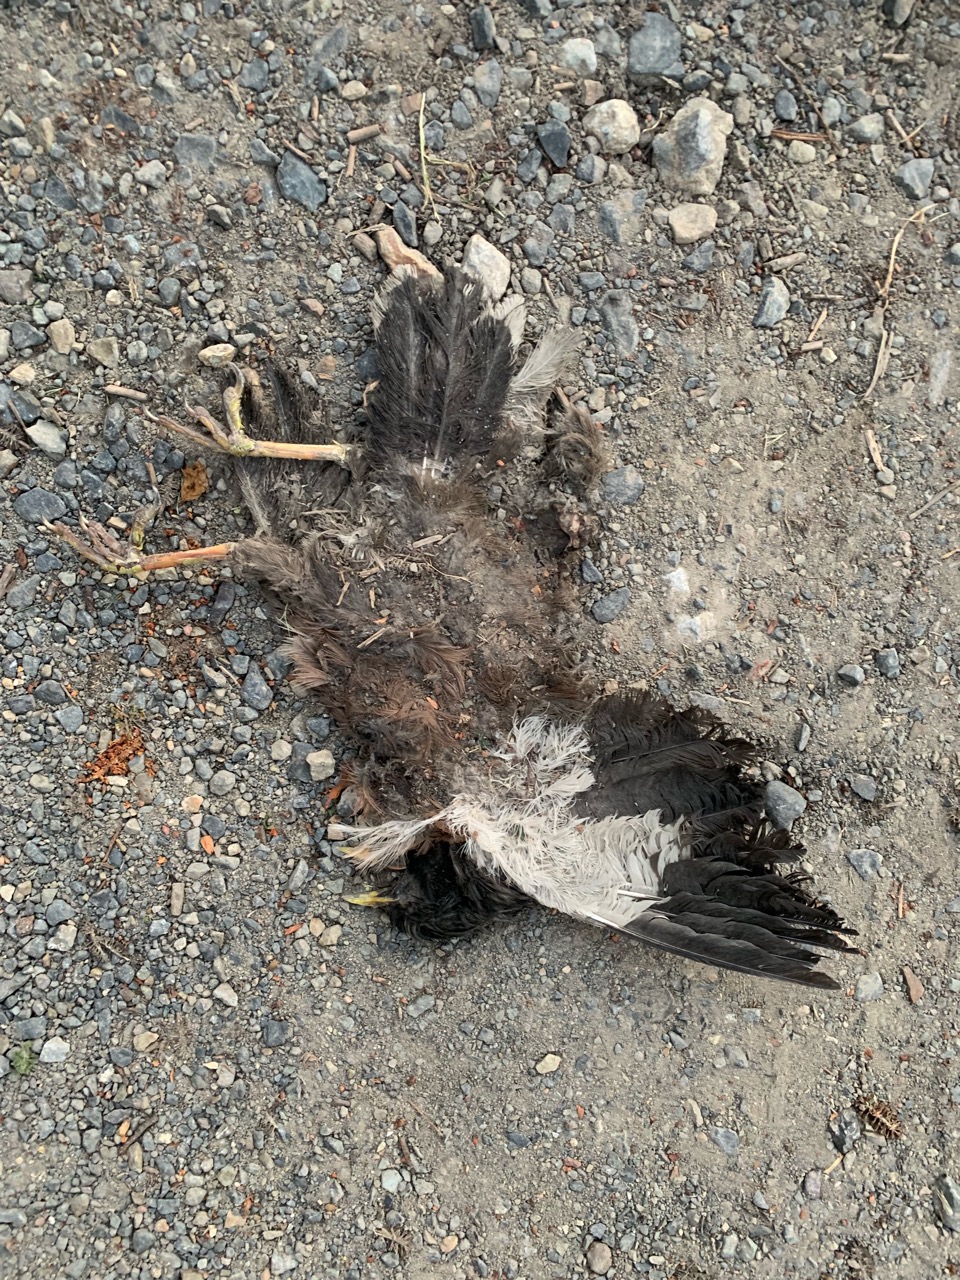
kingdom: Animalia
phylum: Chordata
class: Aves
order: Passeriformes
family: Sturnidae
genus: Acridotheres
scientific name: Acridotheres tristis
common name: Common myna
